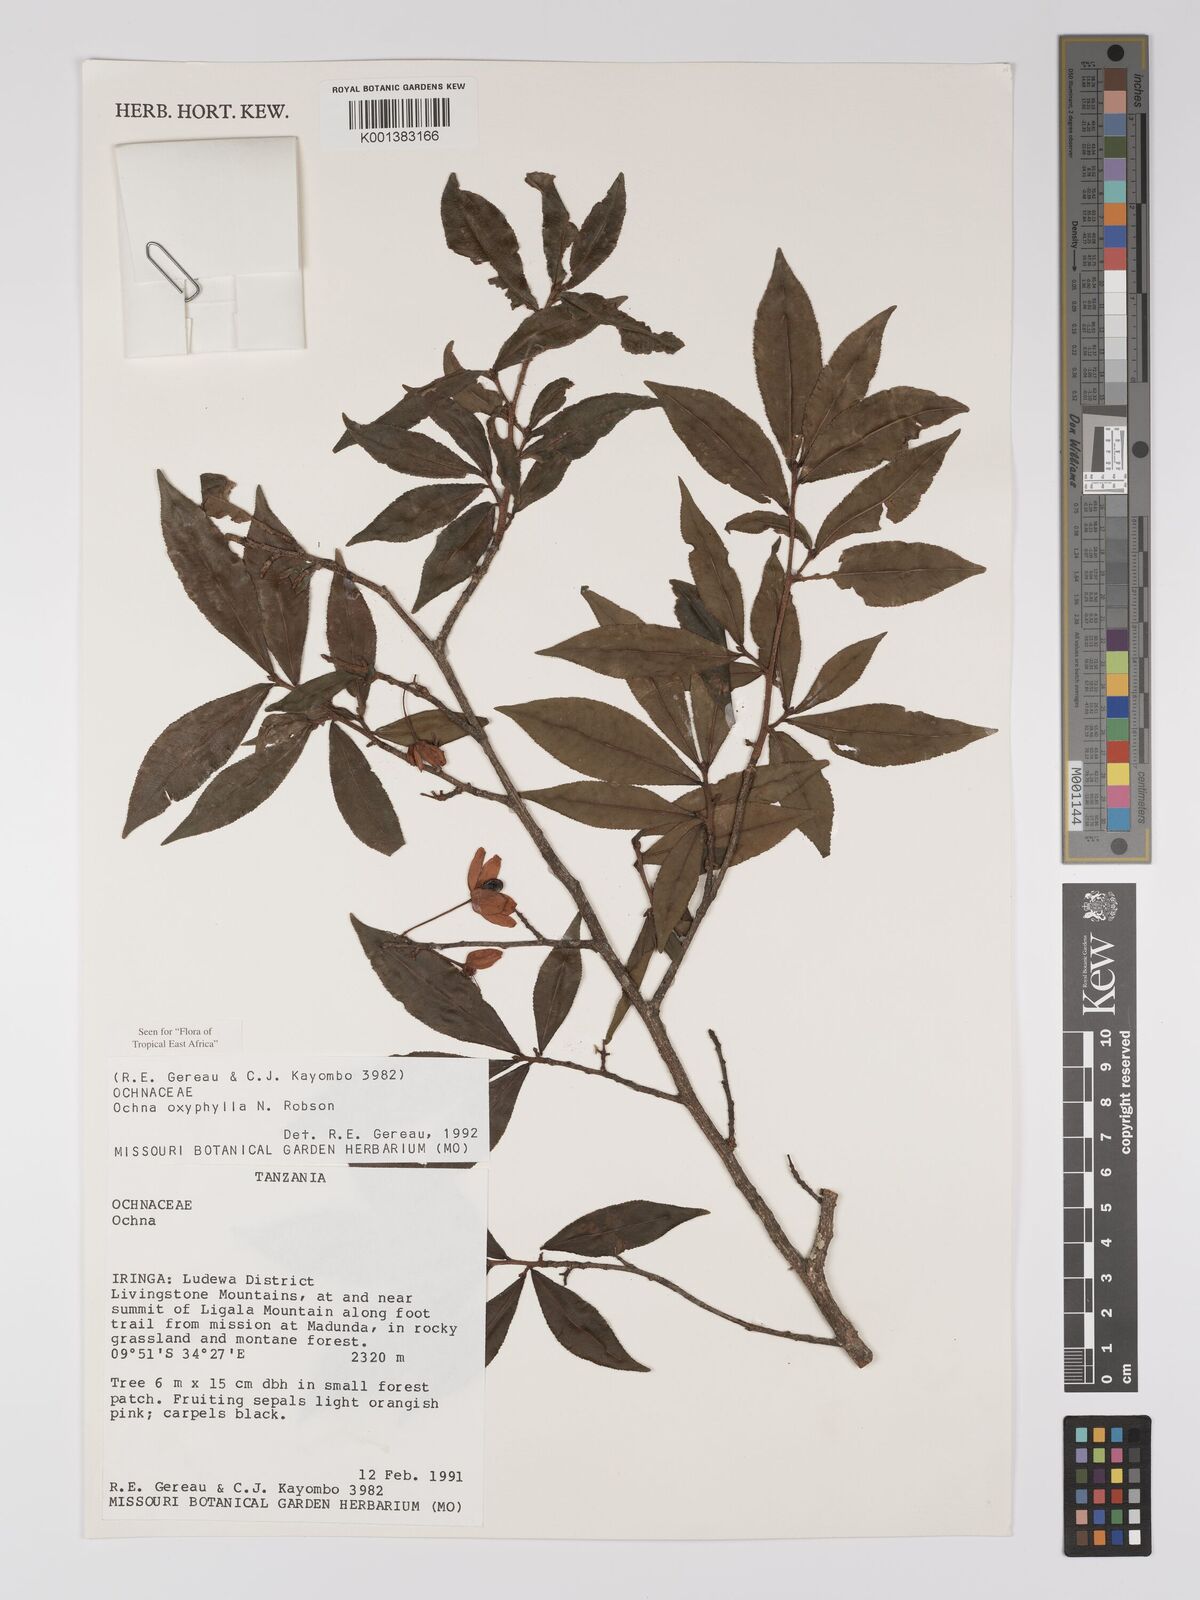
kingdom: Plantae
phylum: Tracheophyta
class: Magnoliopsida
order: Malpighiales
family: Ochnaceae
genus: Ochna
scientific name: Ochna oxyphylla
